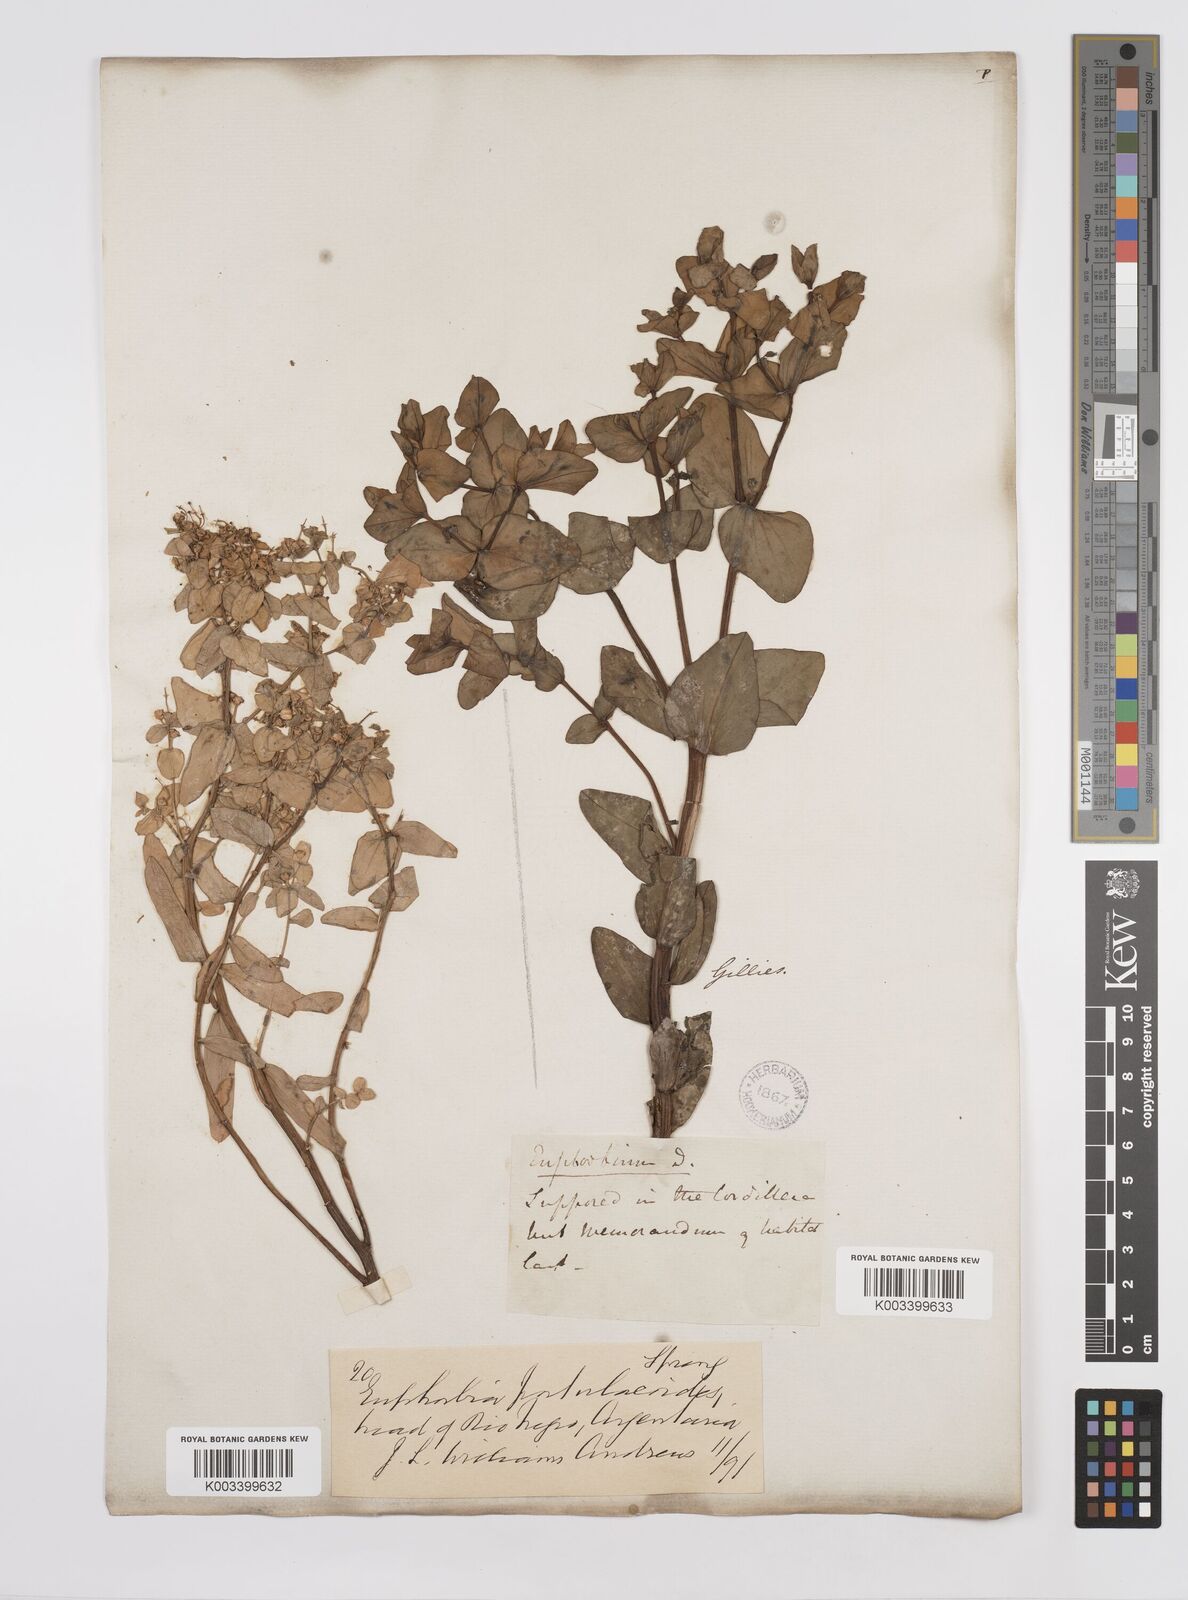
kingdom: Plantae
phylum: Tracheophyta
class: Magnoliopsida
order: Malpighiales
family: Euphorbiaceae
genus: Euphorbia
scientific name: Euphorbia portulacoides
